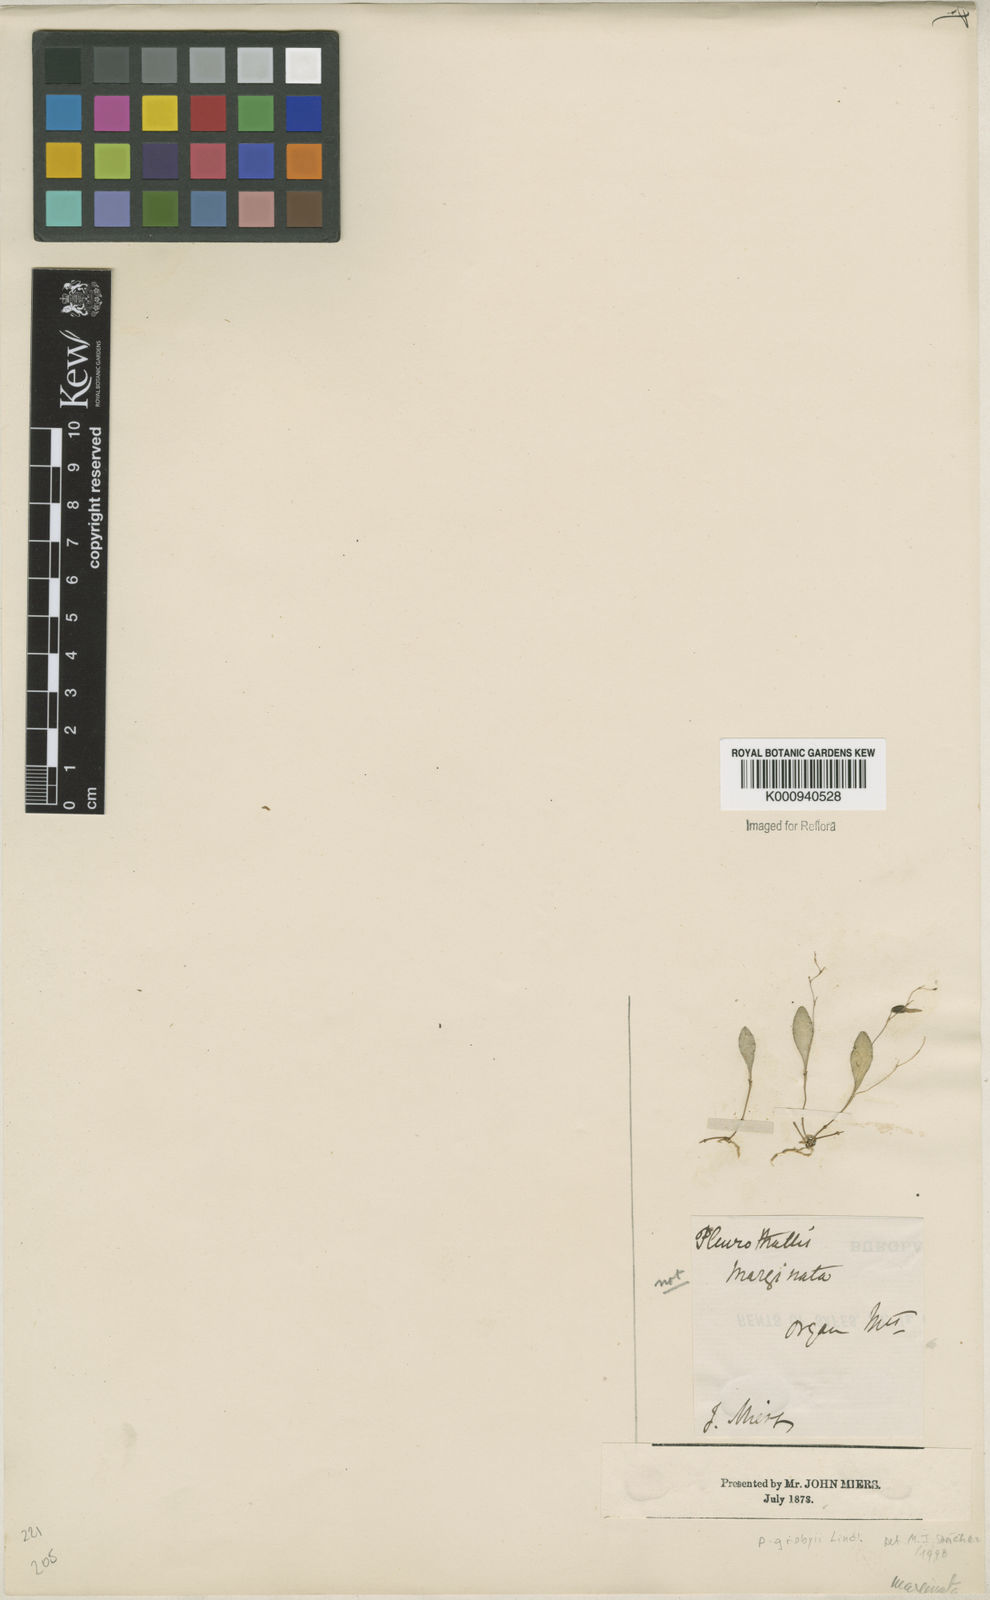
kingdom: Plantae
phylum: Tracheophyta
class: Liliopsida
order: Asparagales
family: Orchidaceae
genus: Pabstiella
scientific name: Pabstiella
